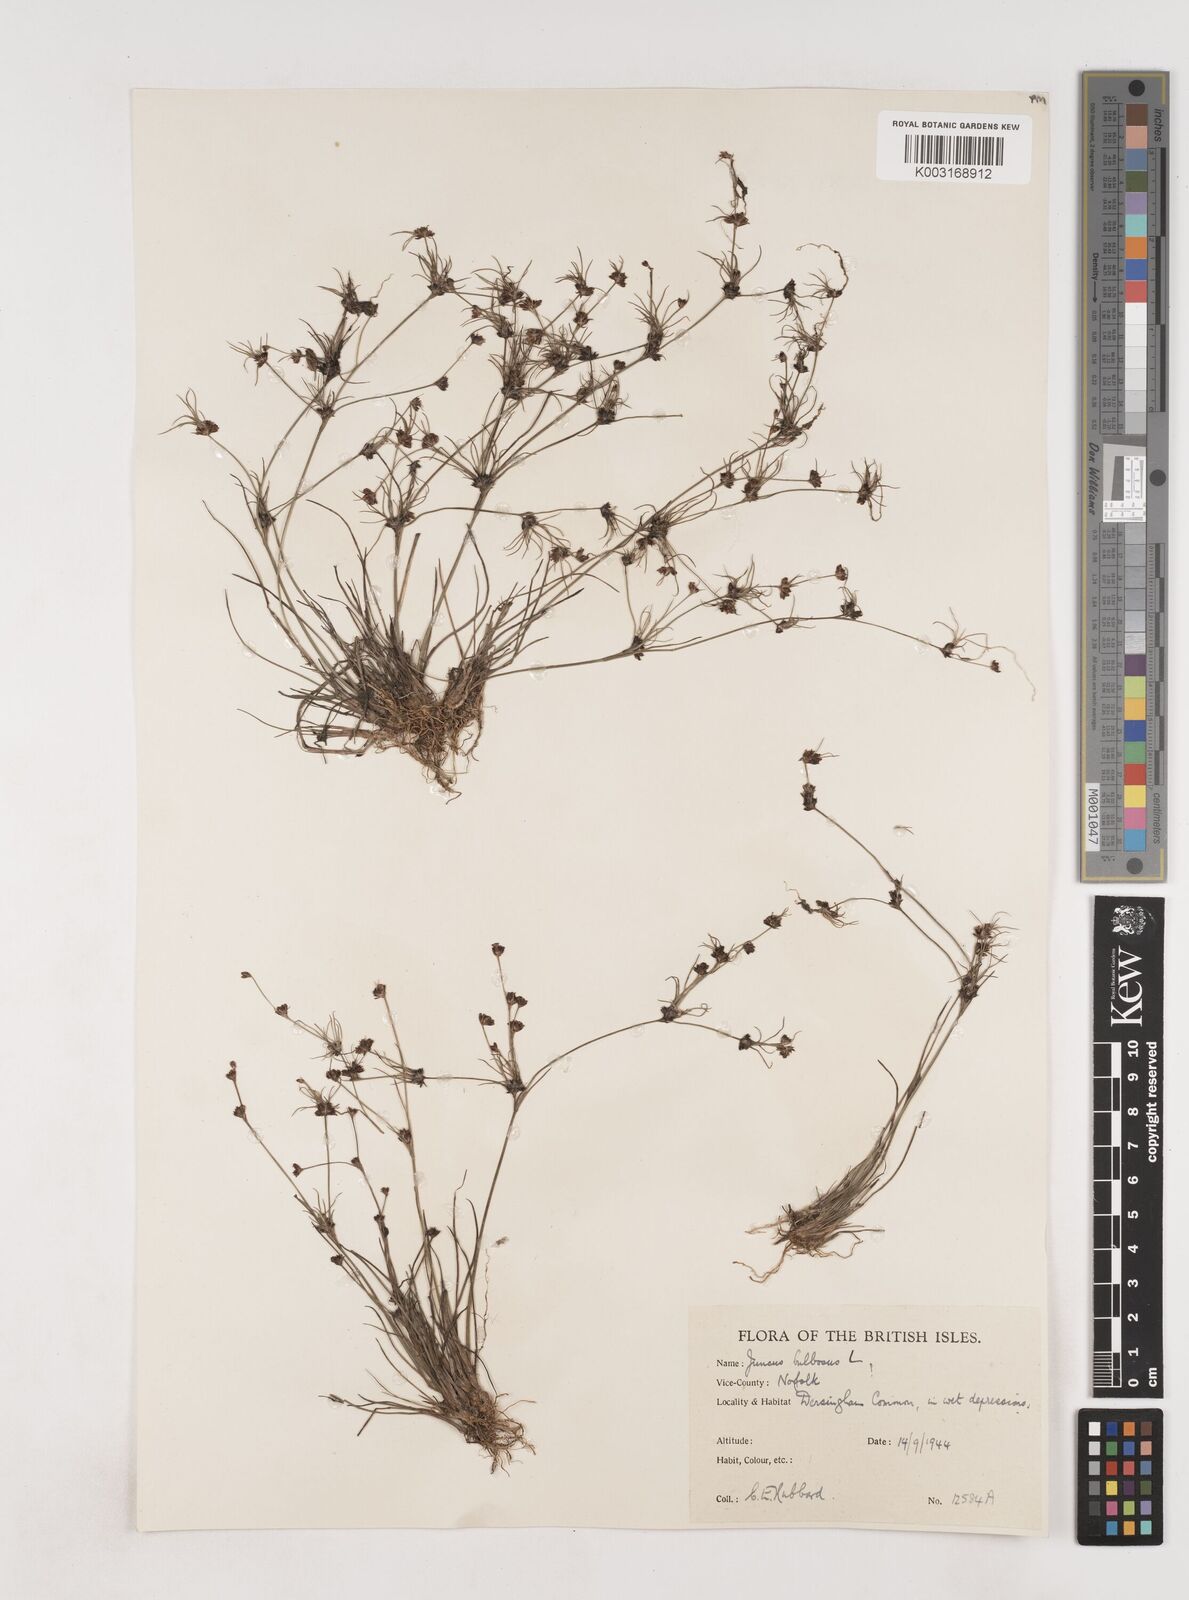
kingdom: Plantae
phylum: Tracheophyta
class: Liliopsida
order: Poales
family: Juncaceae
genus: Juncus
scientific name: Juncus bulbosus
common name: Bulbous rush
